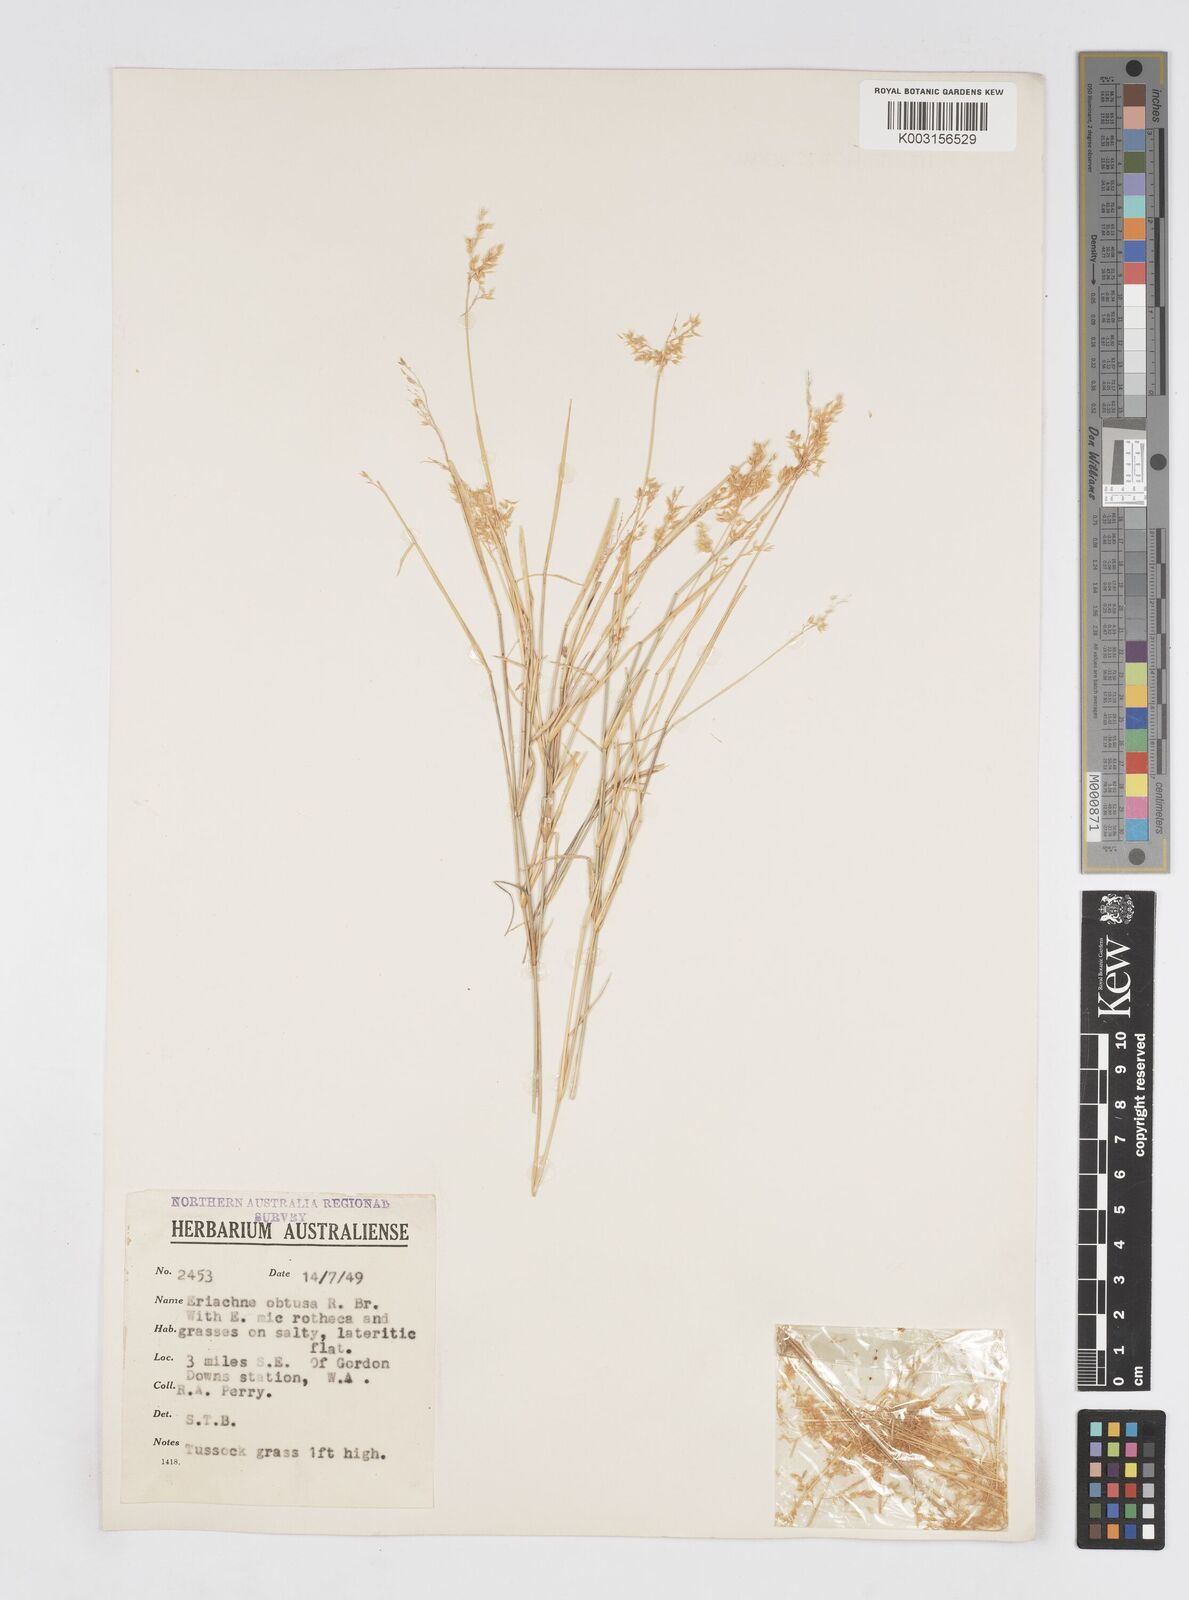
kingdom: Plantae
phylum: Tracheophyta
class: Liliopsida
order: Poales
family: Poaceae
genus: Eriachne
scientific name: Eriachne obtusa
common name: Northern wanderrie grass
